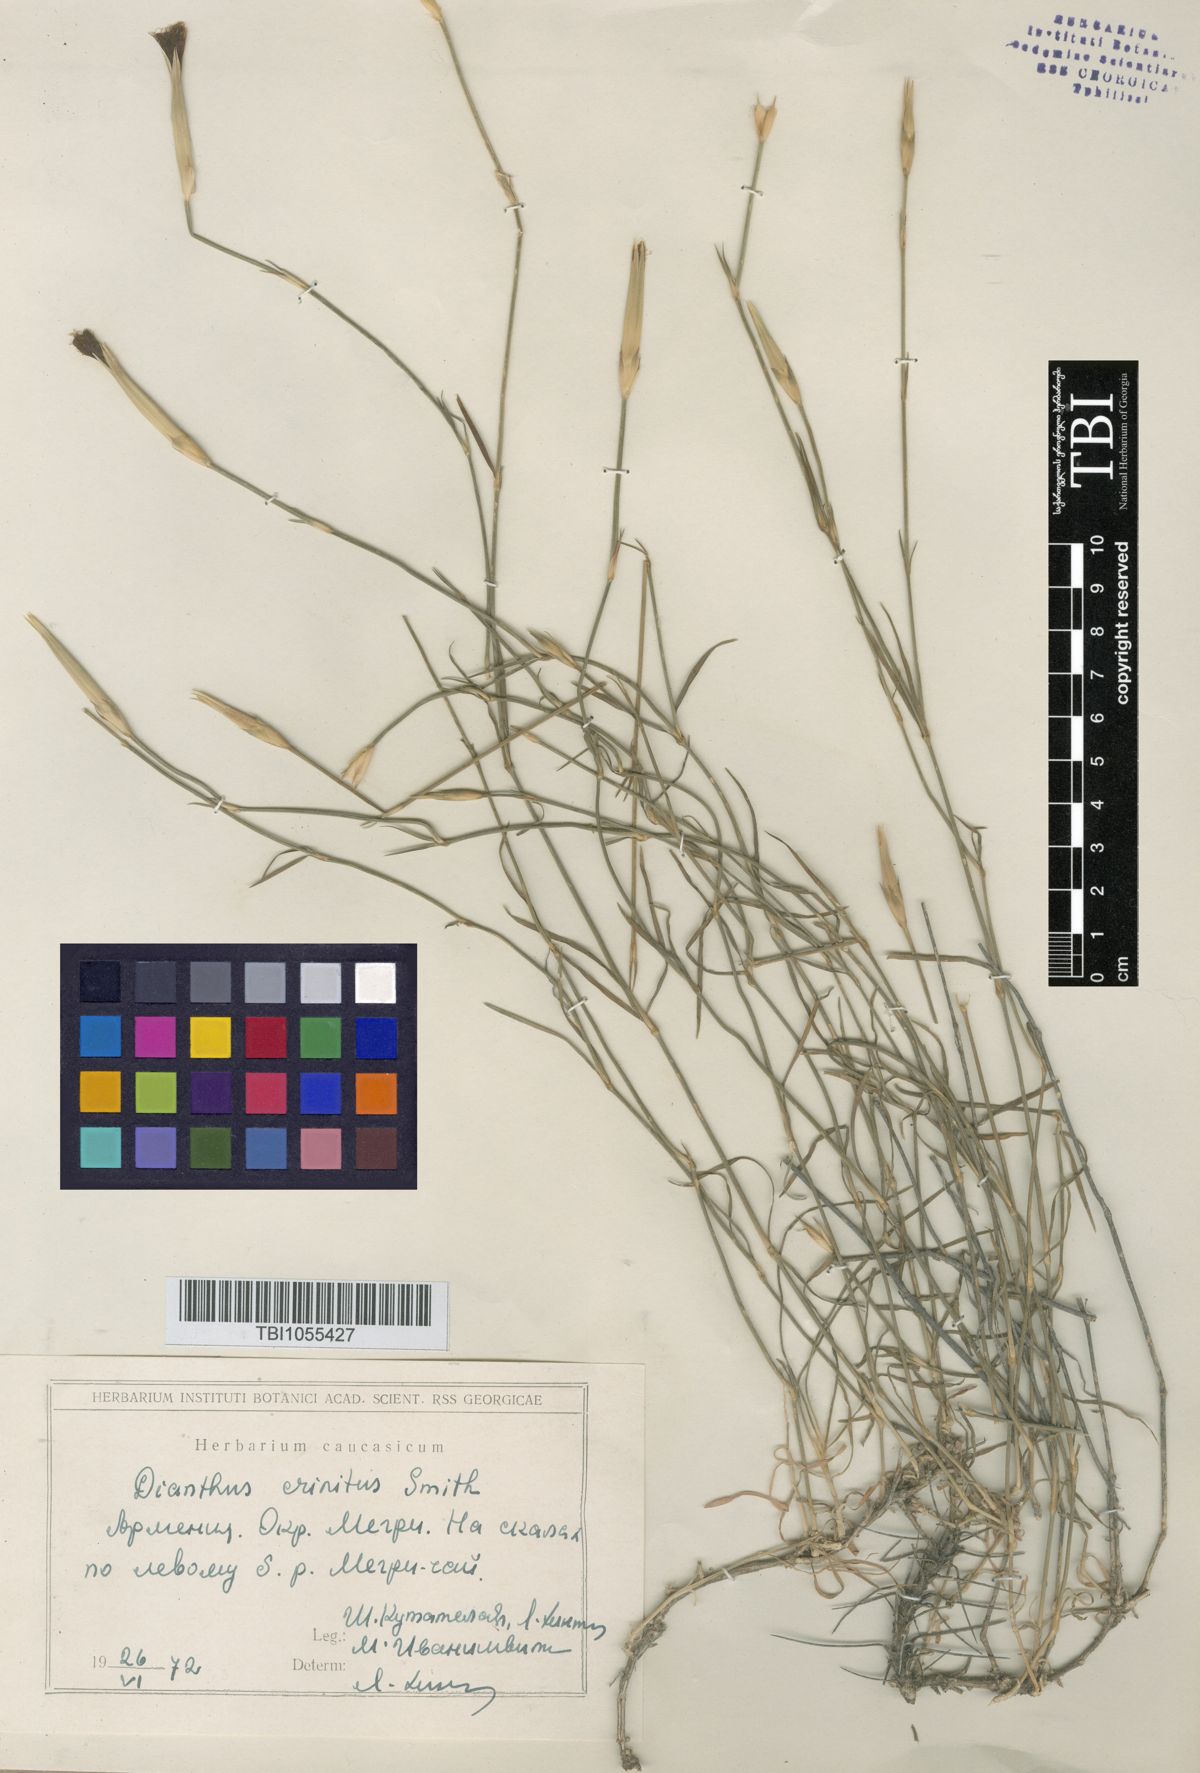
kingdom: Plantae
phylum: Tracheophyta
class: Magnoliopsida
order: Caryophyllales
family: Caryophyllaceae
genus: Dianthus
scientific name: Dianthus crinitus
